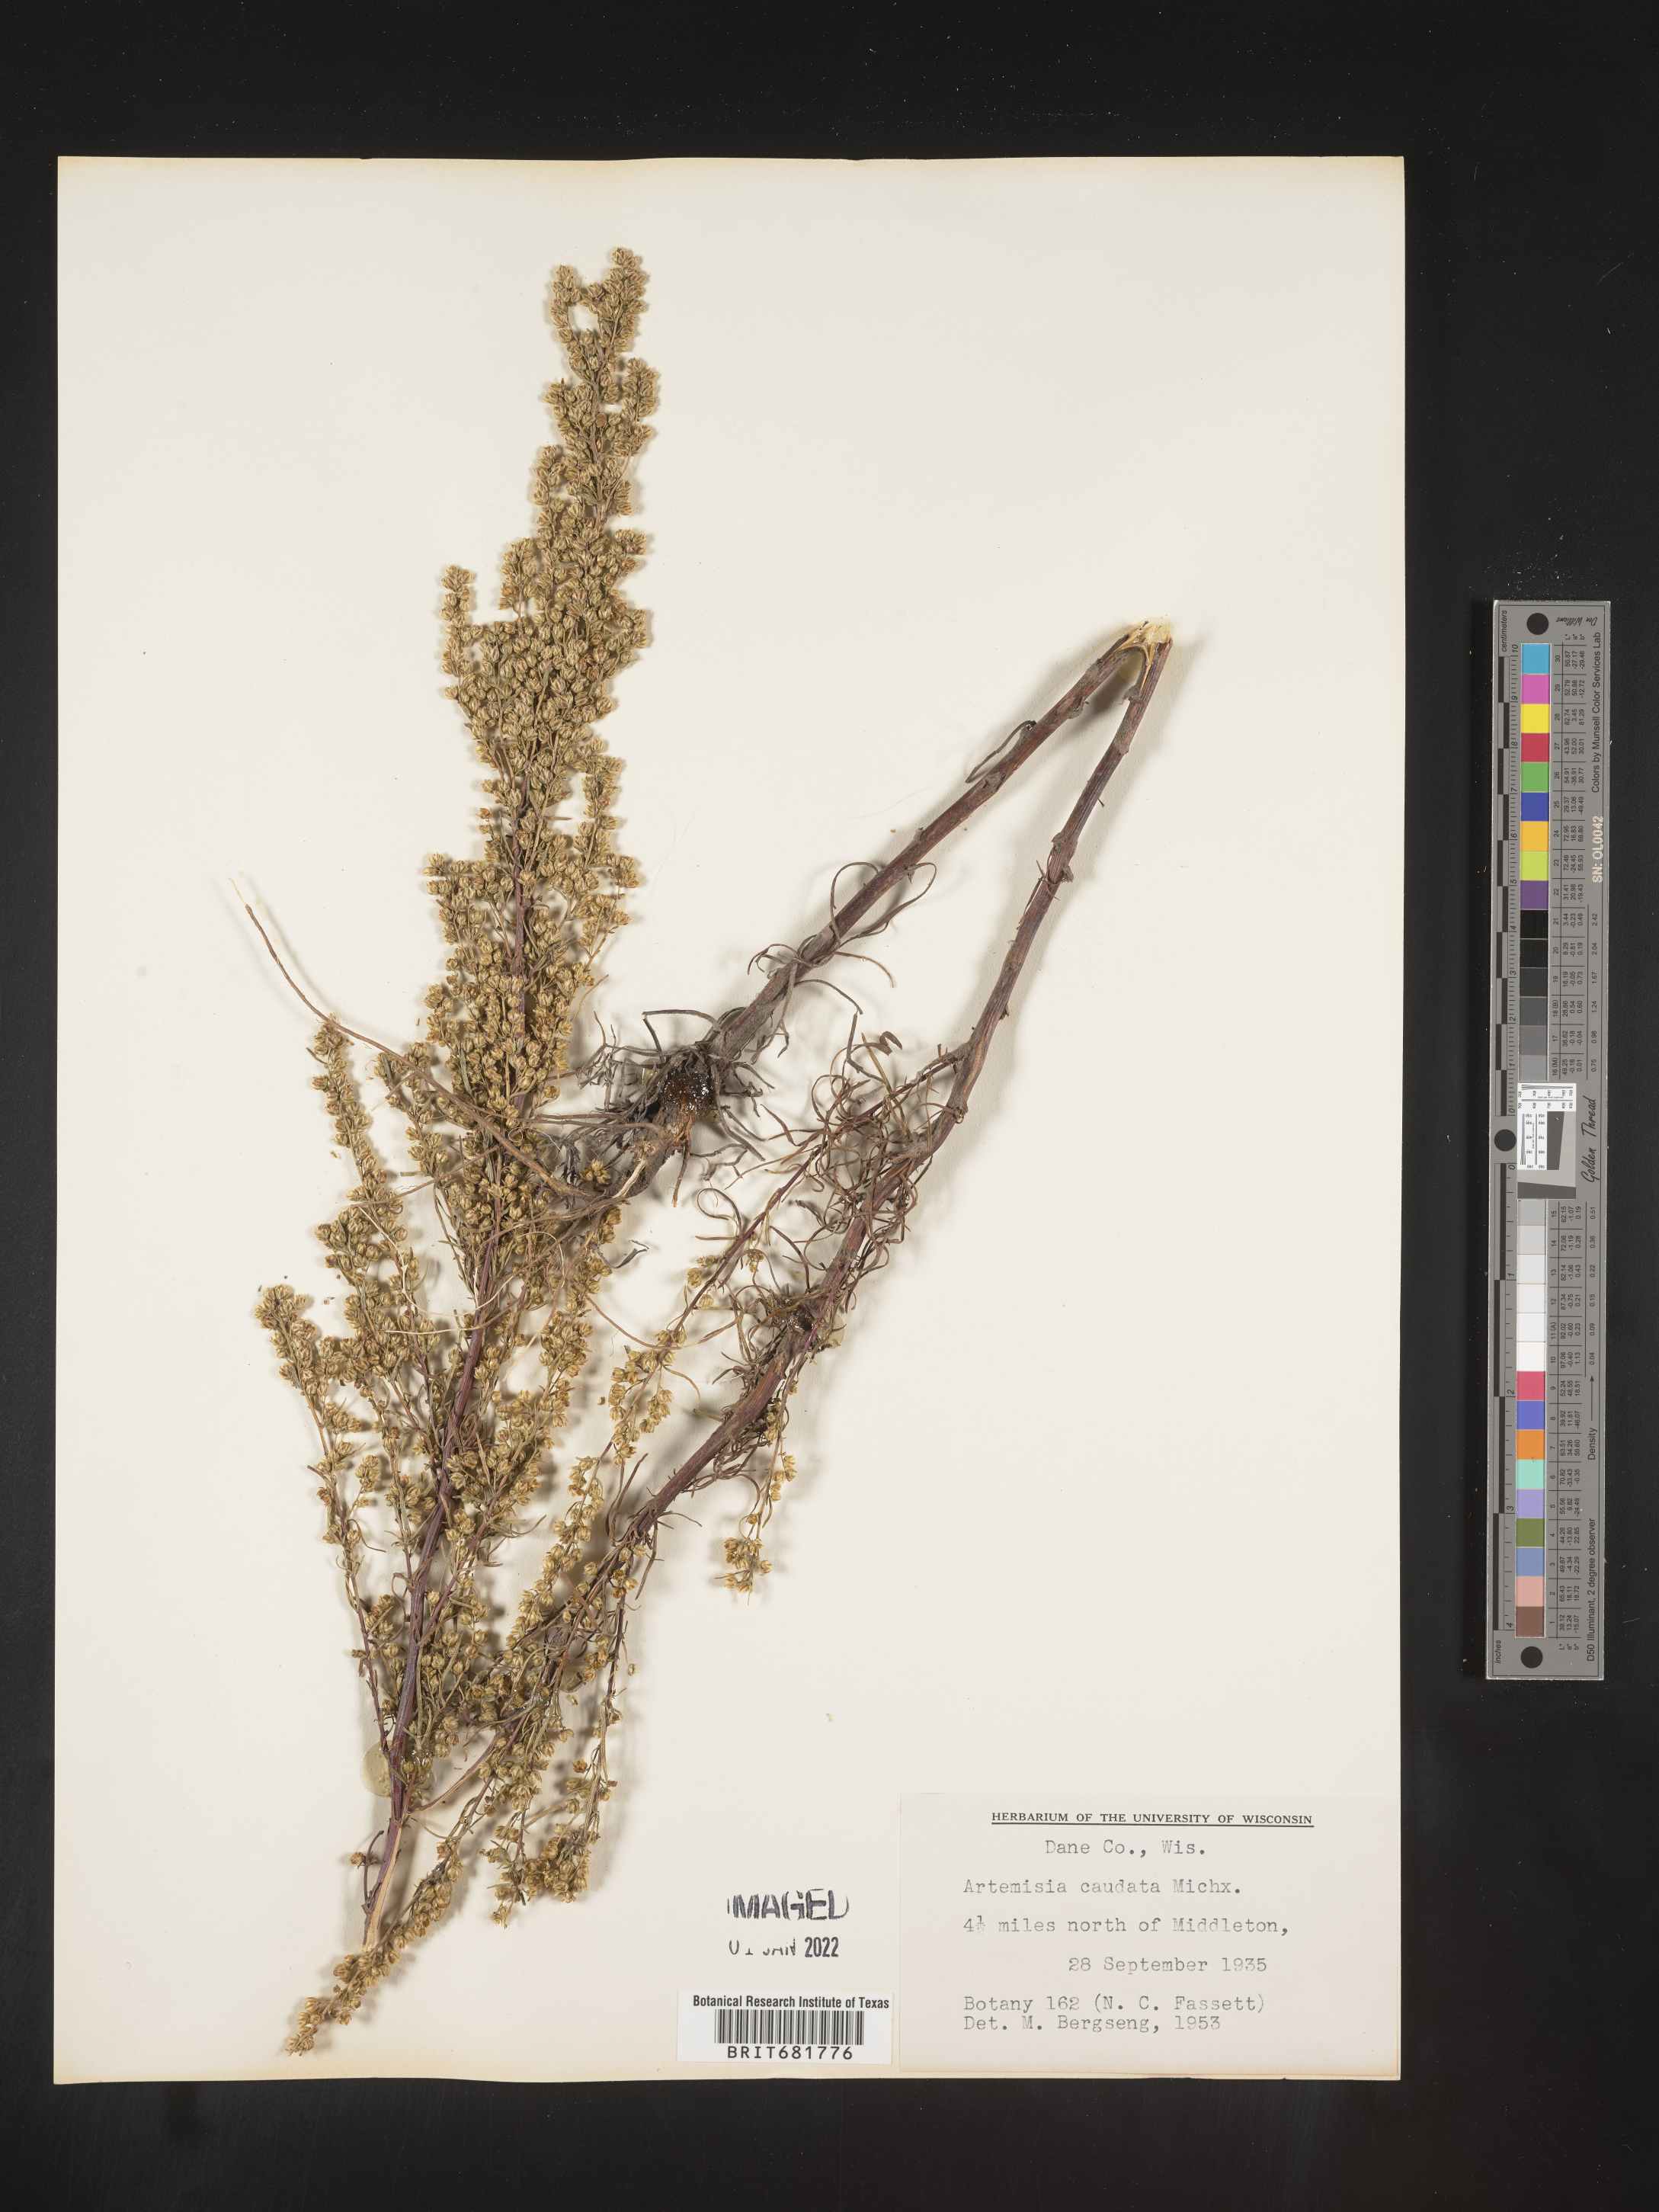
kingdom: Plantae
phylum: Tracheophyta
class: Magnoliopsida
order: Asterales
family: Asteraceae
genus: Artemisia
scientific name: Artemisia campestris
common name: Field wormwood
